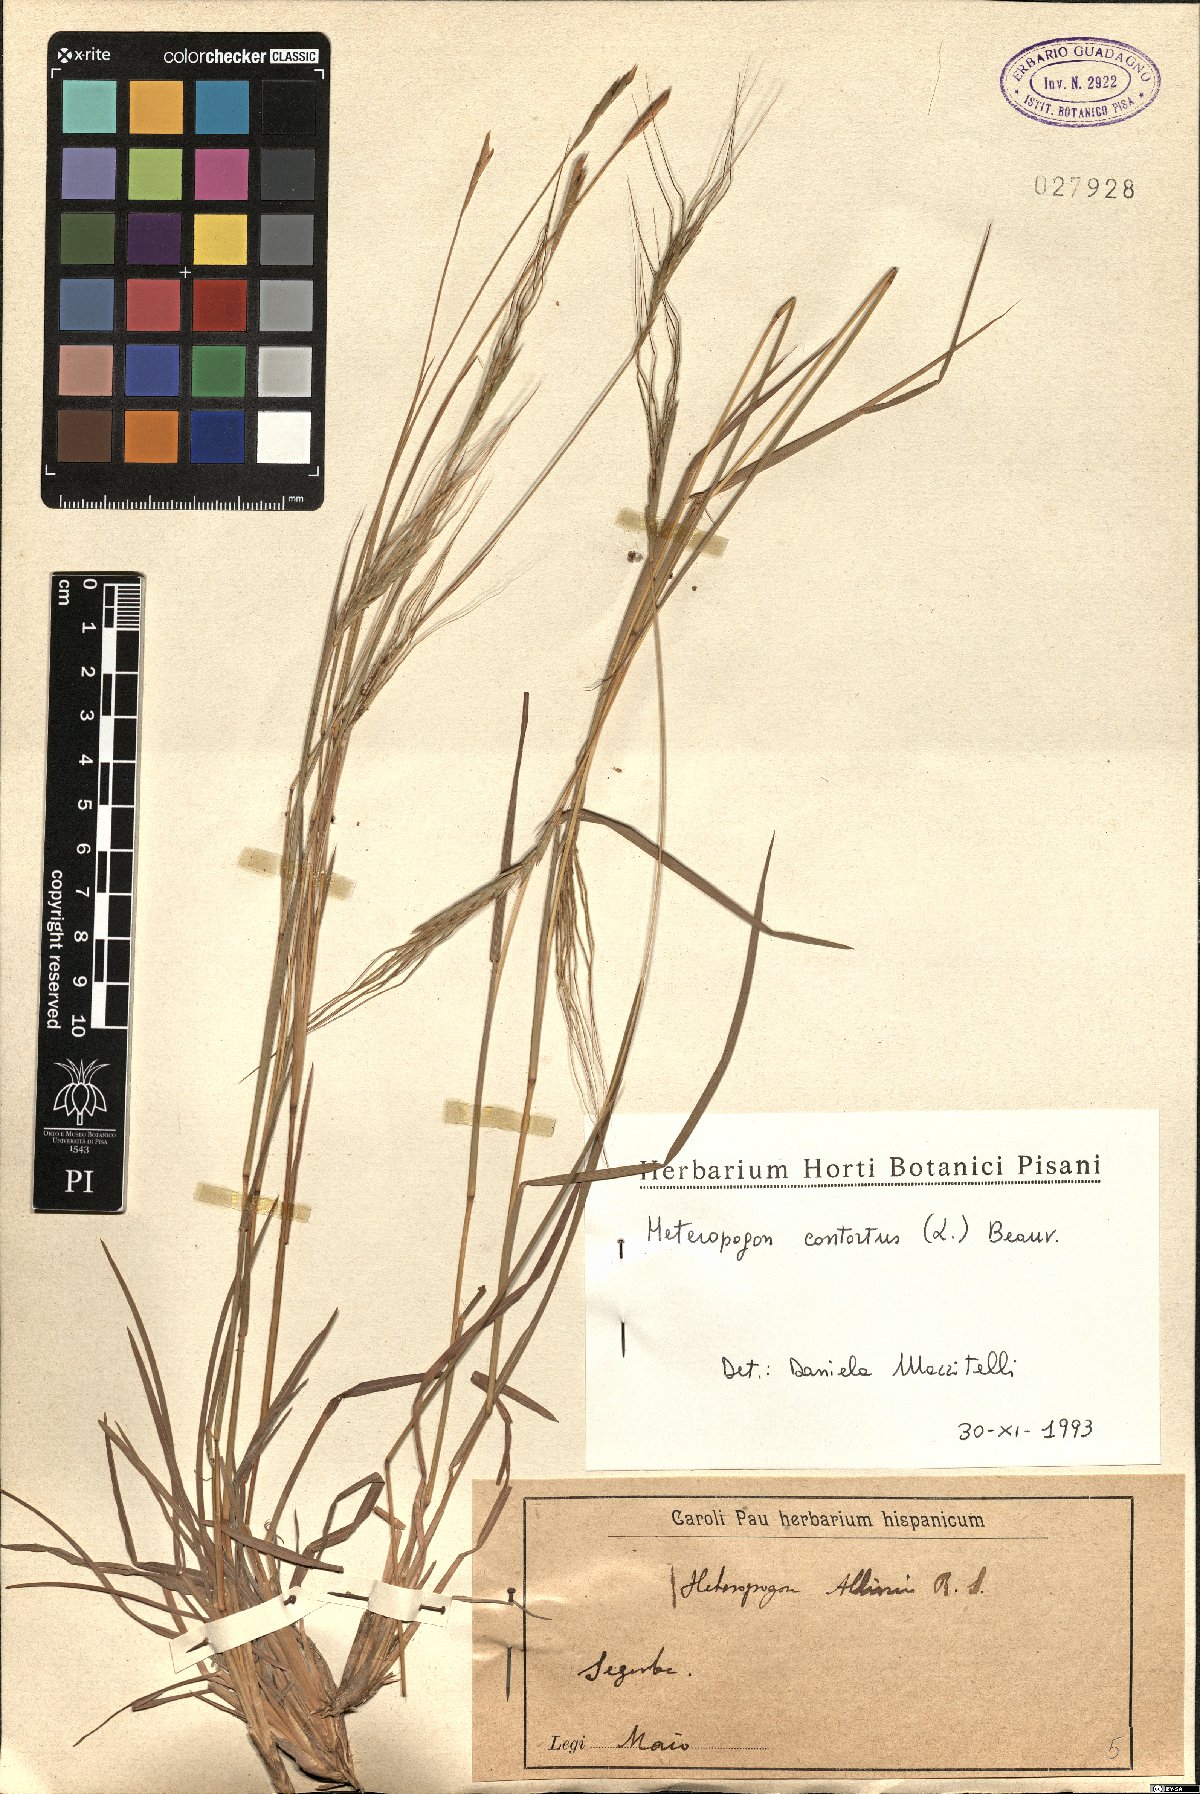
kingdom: Plantae
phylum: Tracheophyta
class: Liliopsida
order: Poales
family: Poaceae
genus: Heteropogon
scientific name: Heteropogon contortus
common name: Tanglehead
